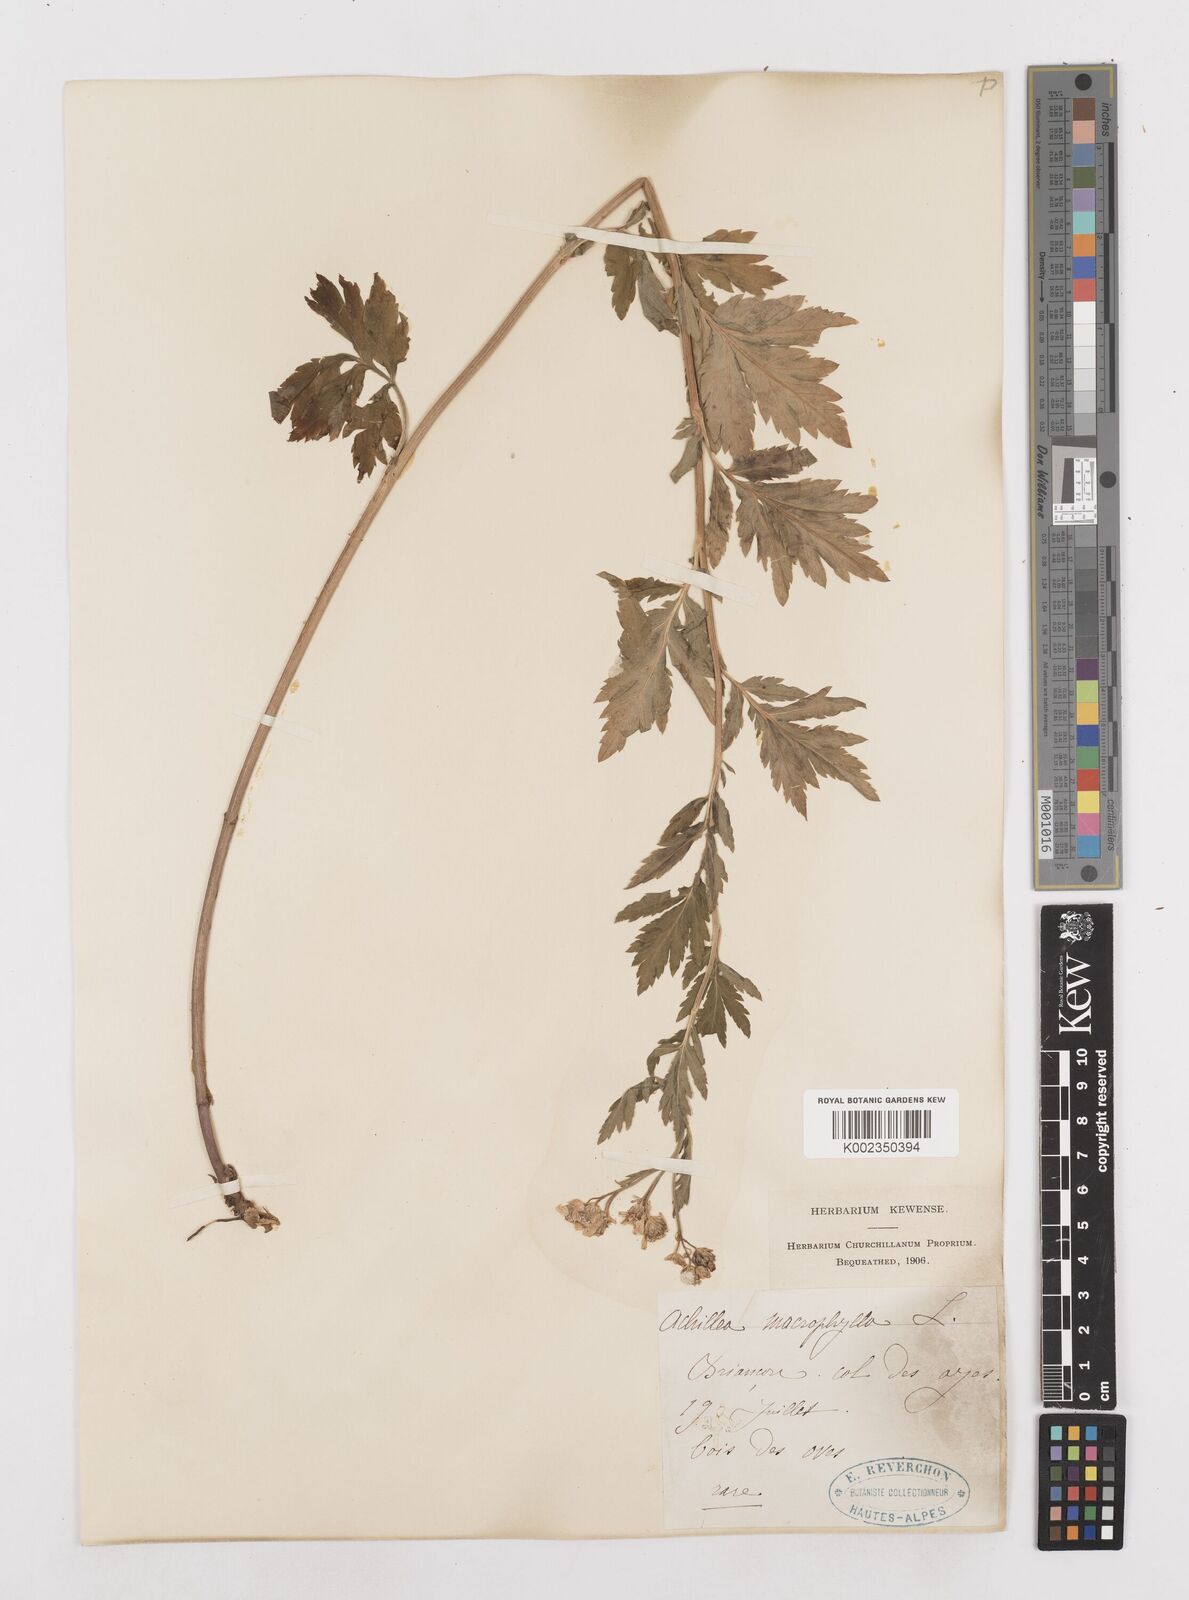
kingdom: Plantae
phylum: Tracheophyta
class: Magnoliopsida
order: Asterales
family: Asteraceae
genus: Achillea
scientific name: Achillea macrophylla
